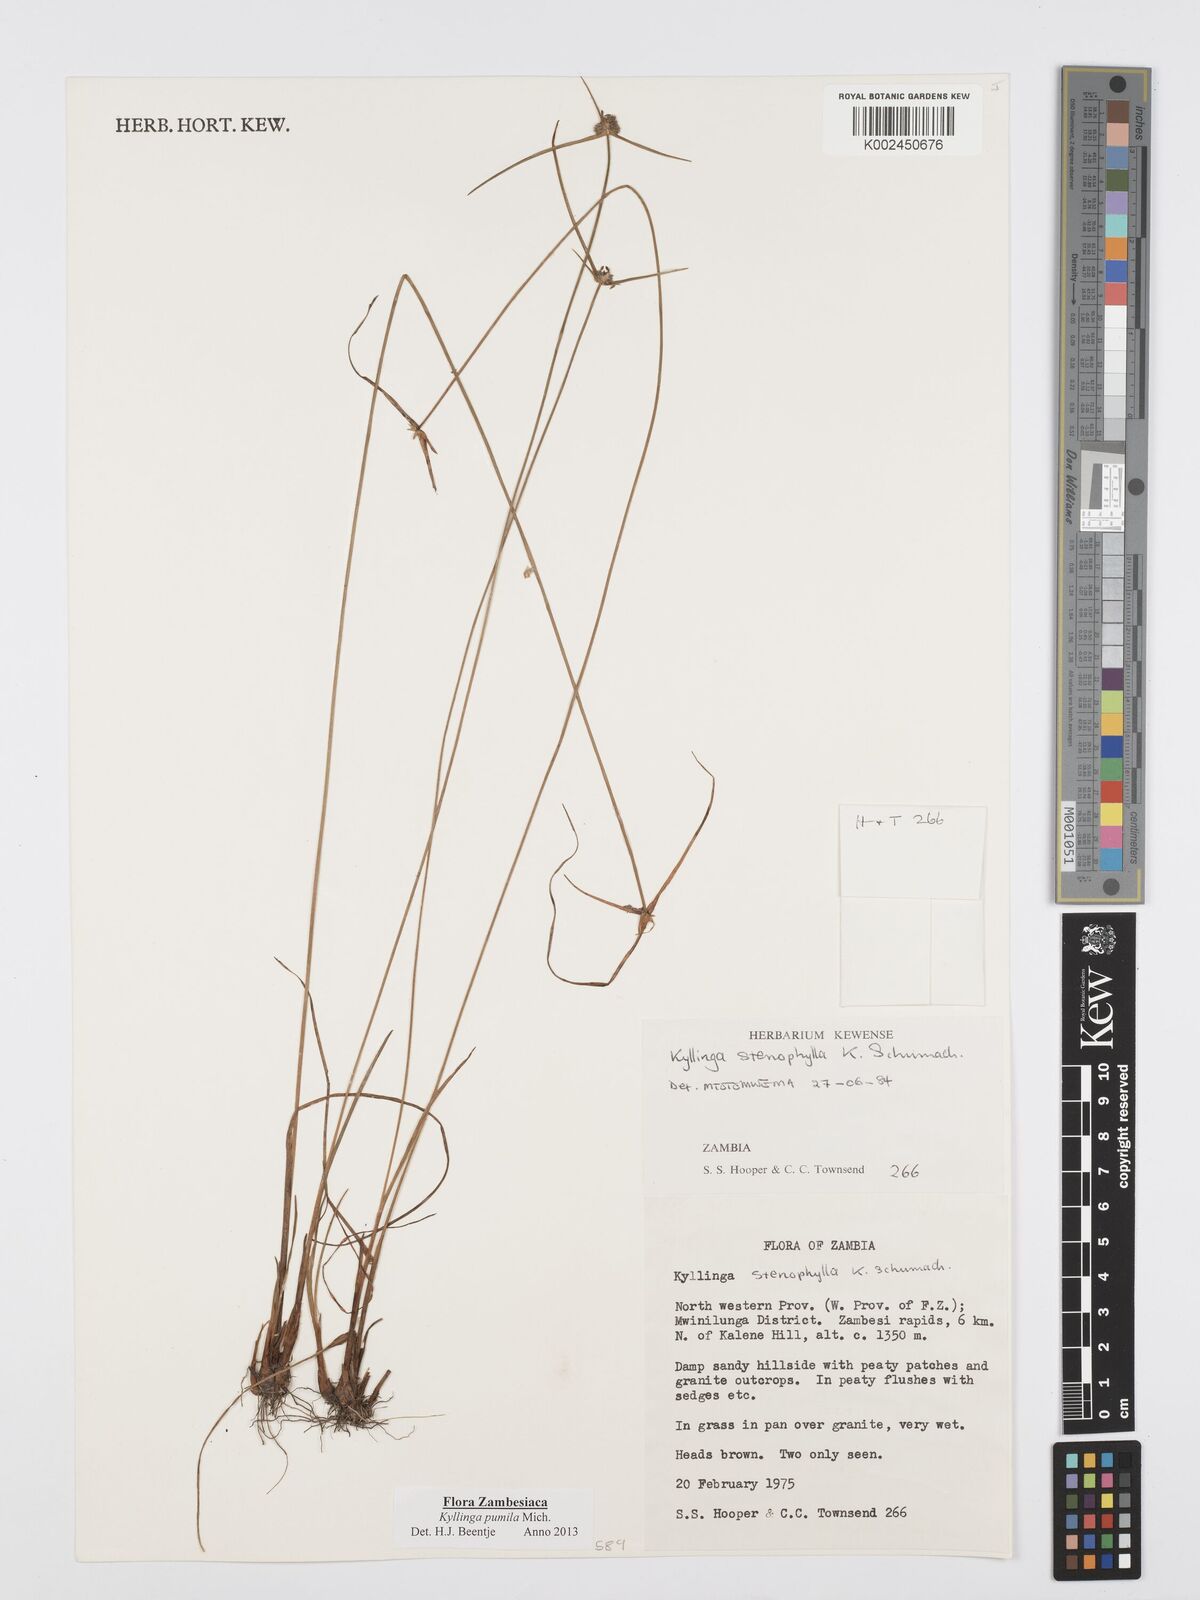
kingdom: Plantae
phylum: Tracheophyta
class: Liliopsida
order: Poales
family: Cyperaceae
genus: Cyperus
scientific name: Cyperus pumilus
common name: Low flatsedge
